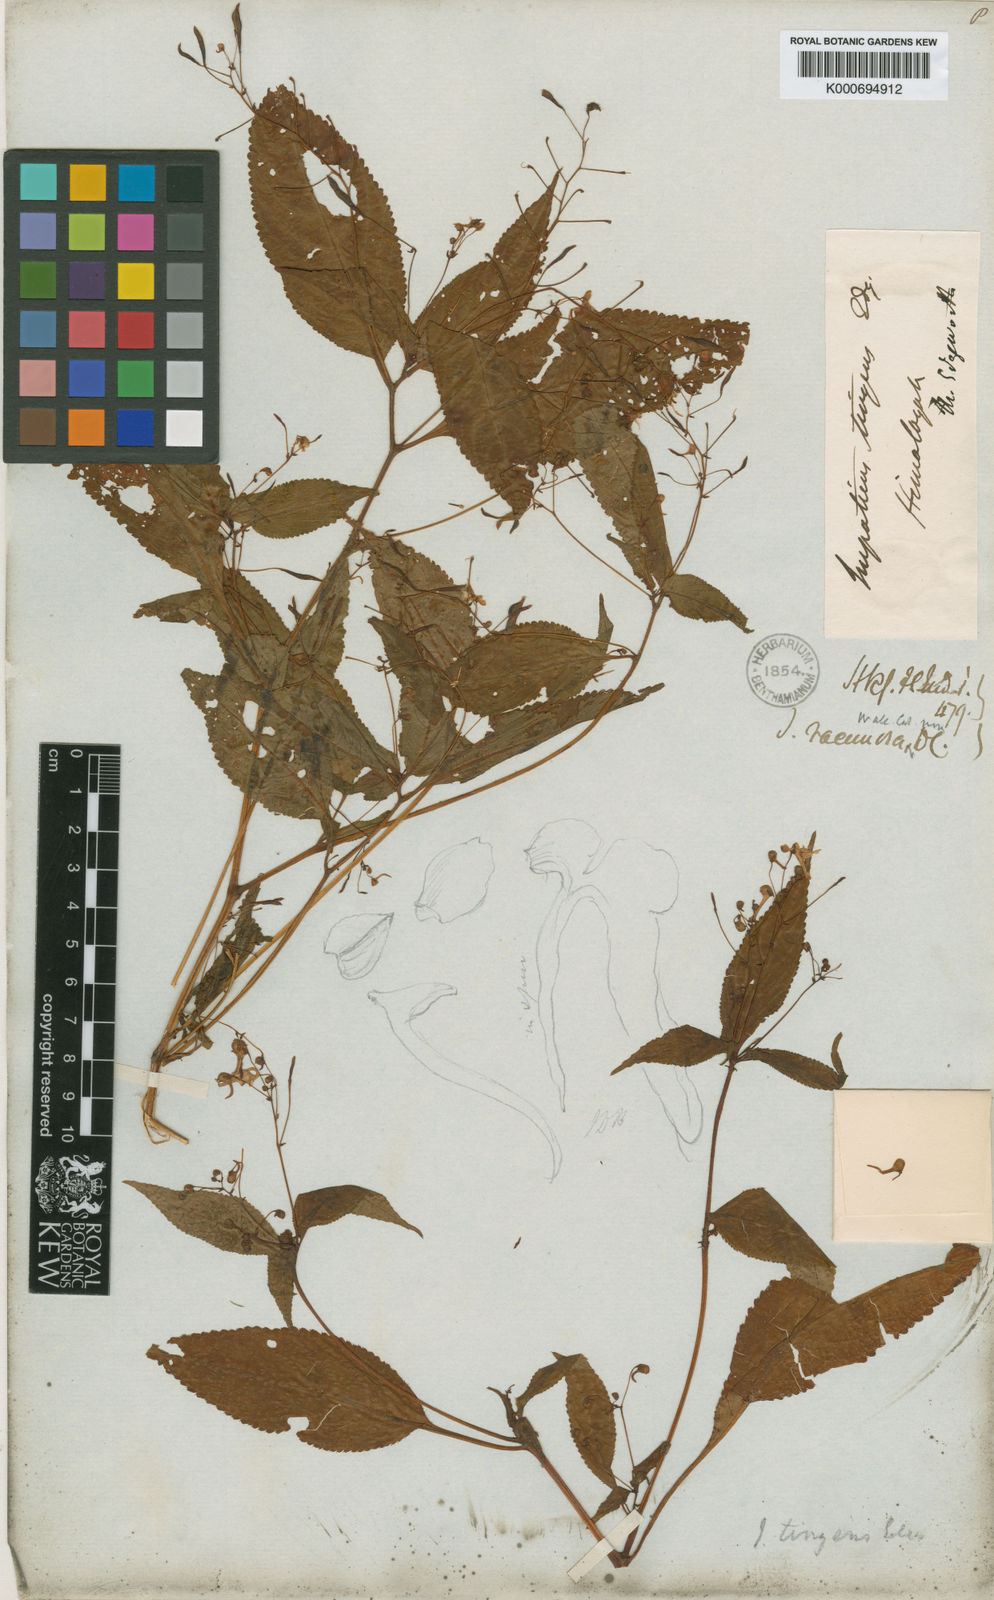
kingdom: Plantae
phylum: Tracheophyta
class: Magnoliopsida
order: Ericales
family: Balsaminaceae
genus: Impatiens
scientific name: Impatiens laxiflora
